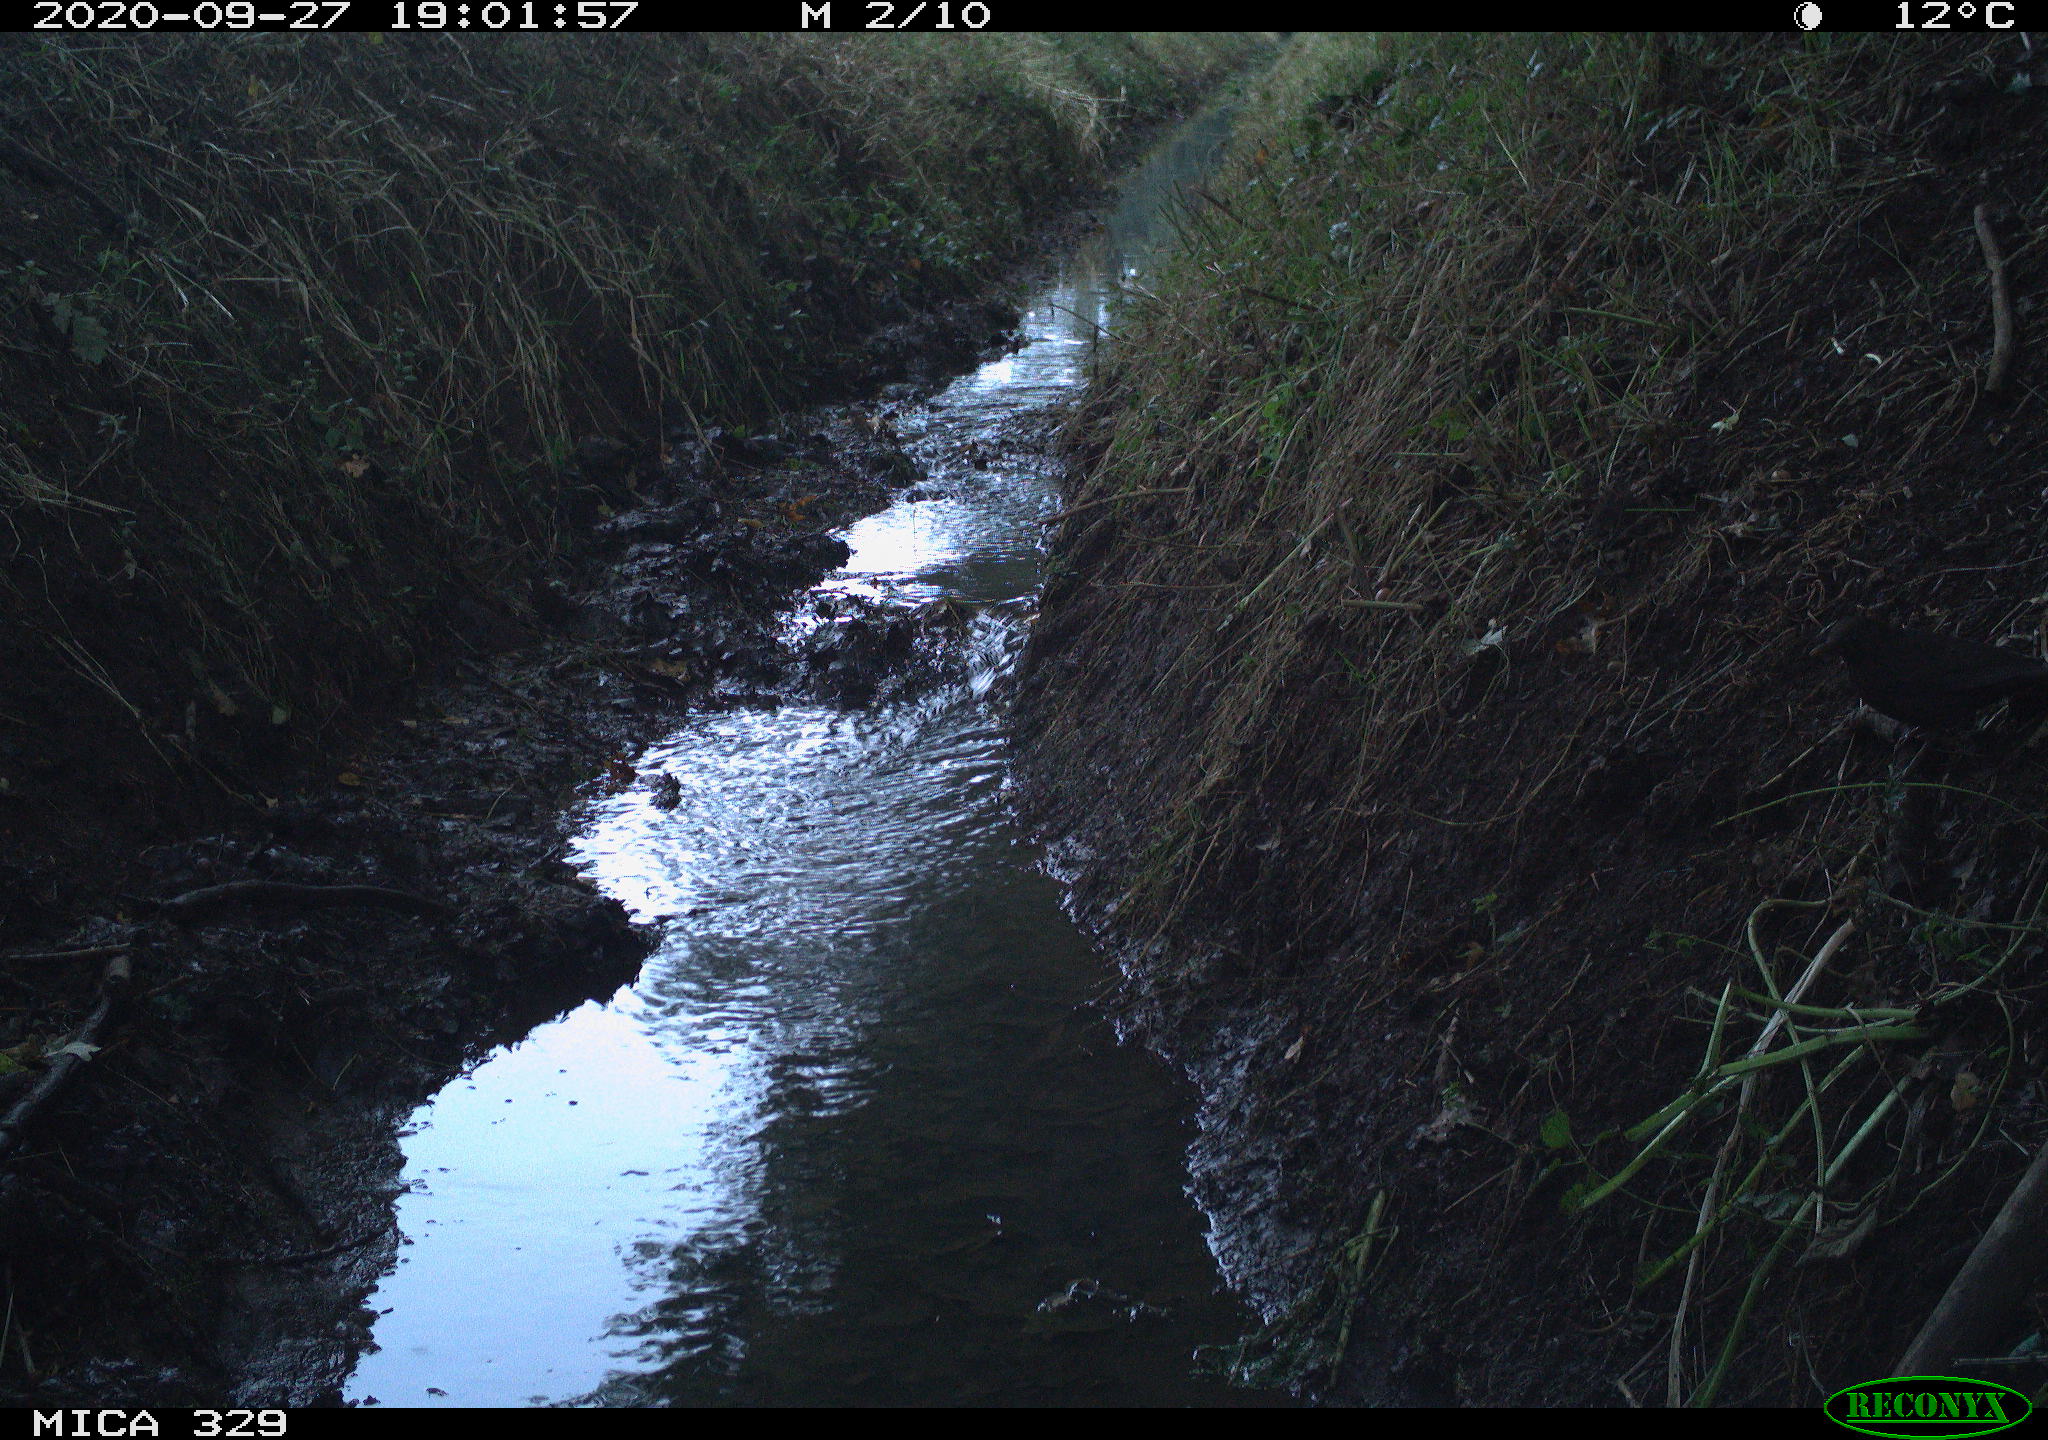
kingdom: Animalia
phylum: Chordata
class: Aves
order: Passeriformes
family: Turdidae
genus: Turdus
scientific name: Turdus merula
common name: Common blackbird
